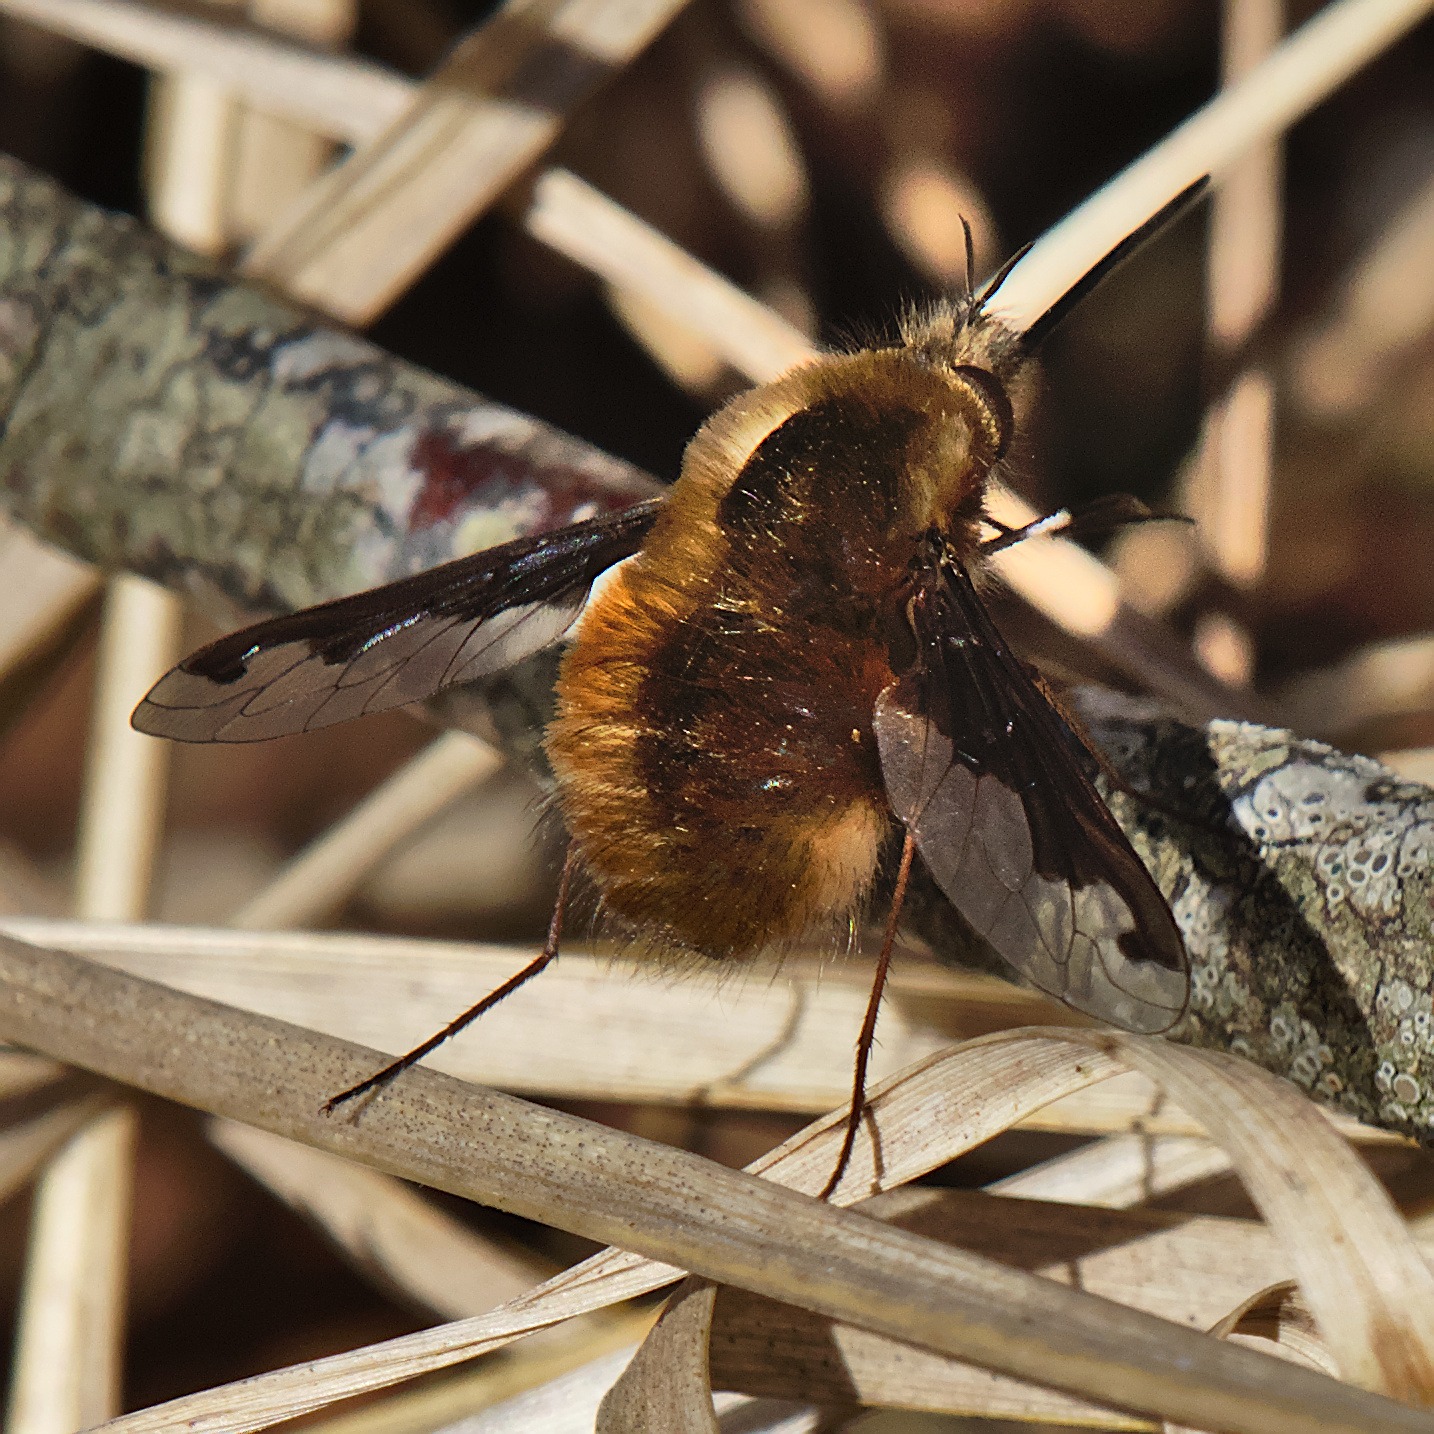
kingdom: Animalia
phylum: Arthropoda
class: Insecta
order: Diptera
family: Bombyliidae
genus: Bombylius
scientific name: Bombylius major
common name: Stor humleflue
